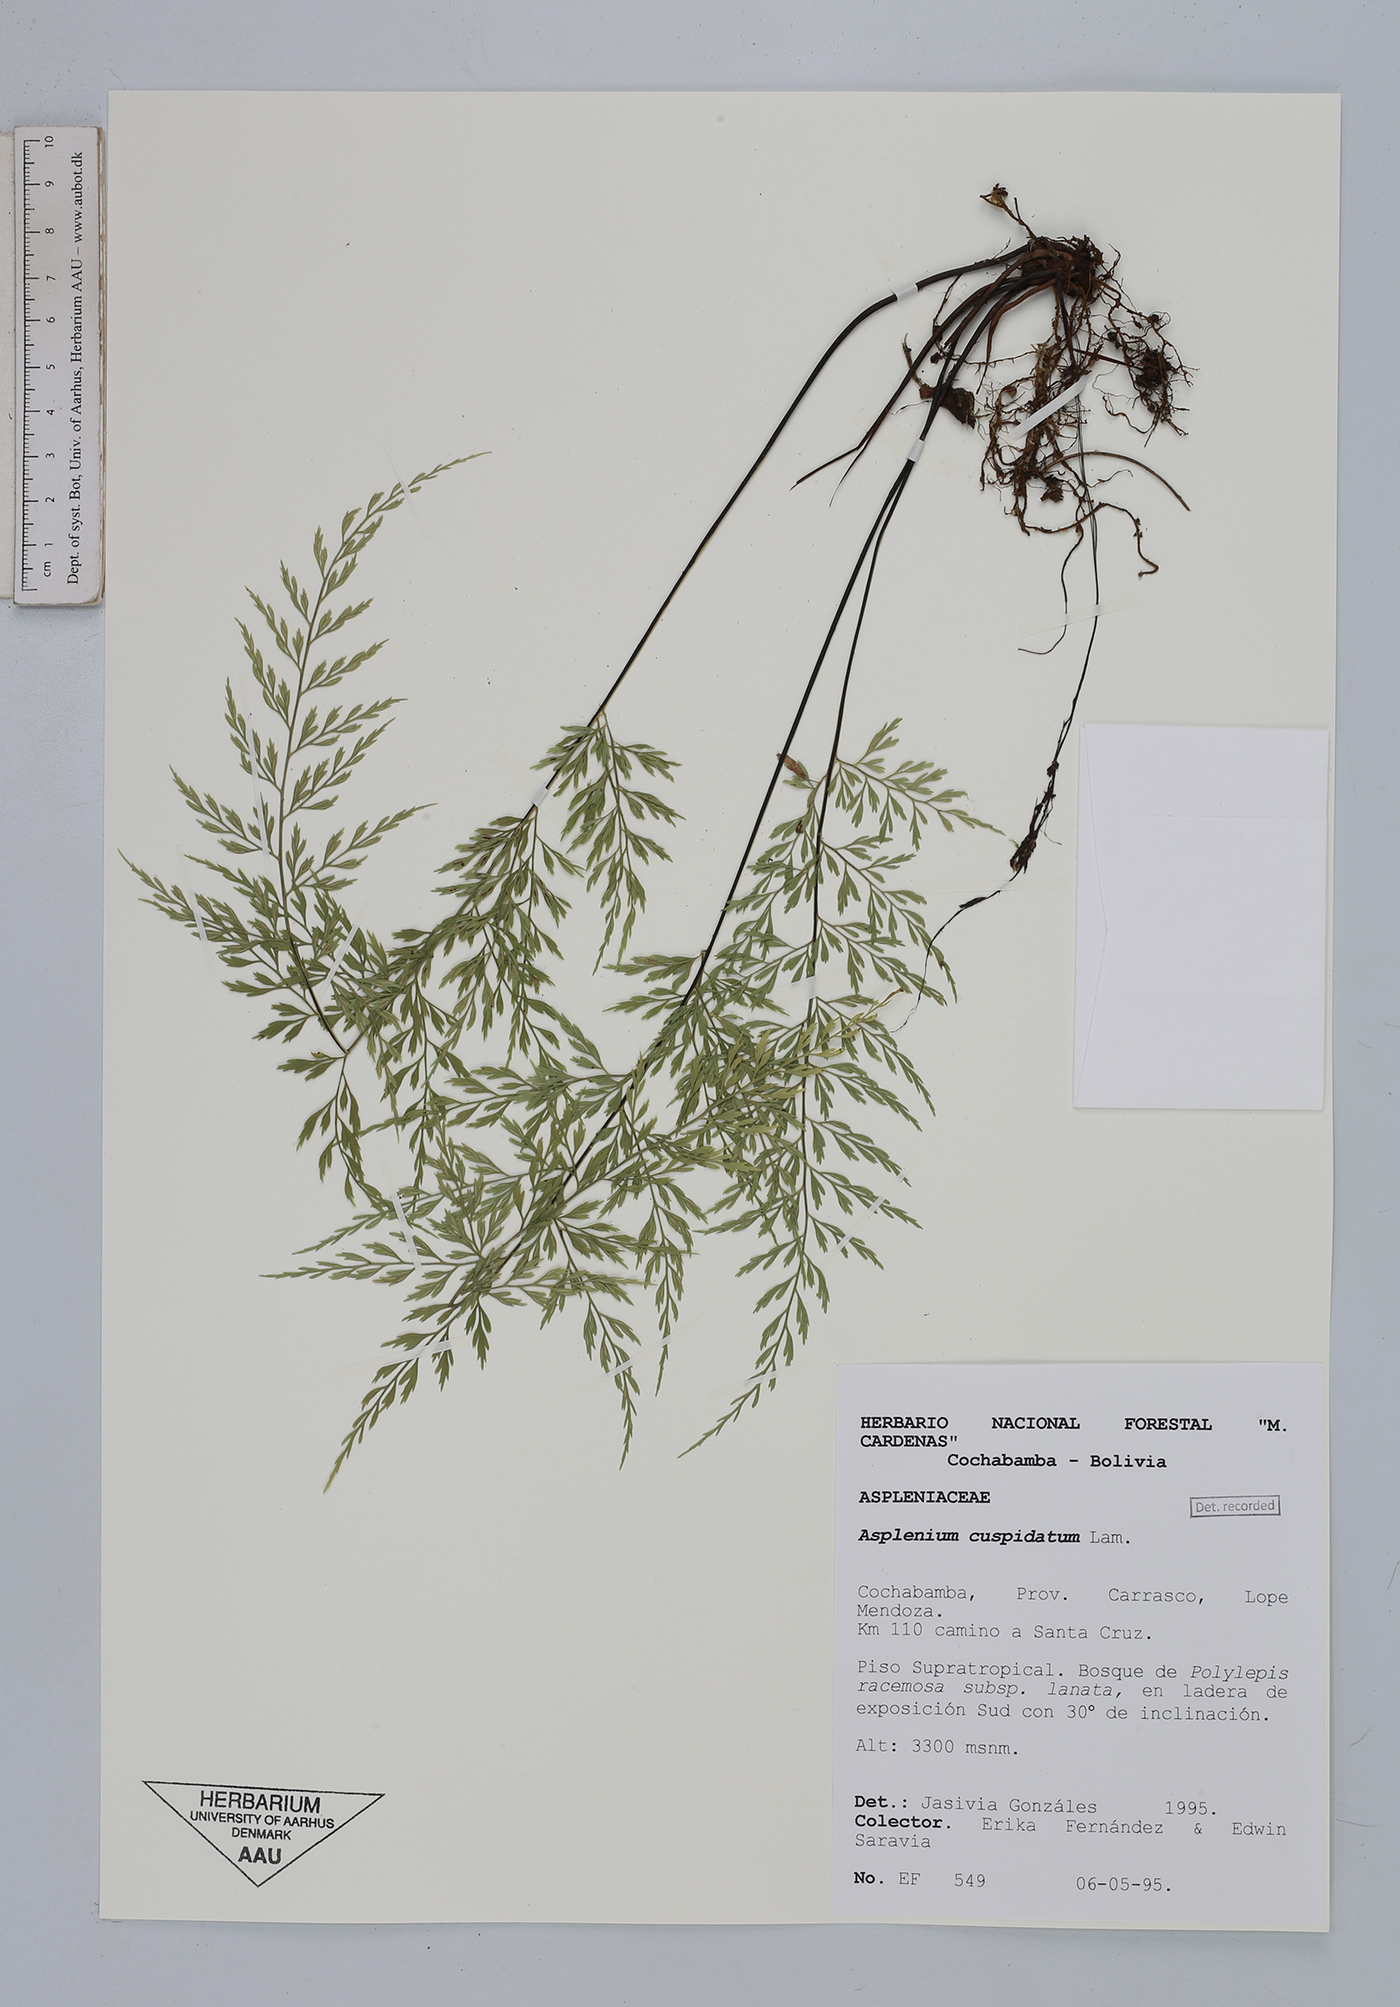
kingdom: Plantae
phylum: Tracheophyta
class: Polypodiopsida
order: Polypodiales
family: Aspleniaceae
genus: Asplenium
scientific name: Asplenium cuspidatum
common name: Eared spleenwort
